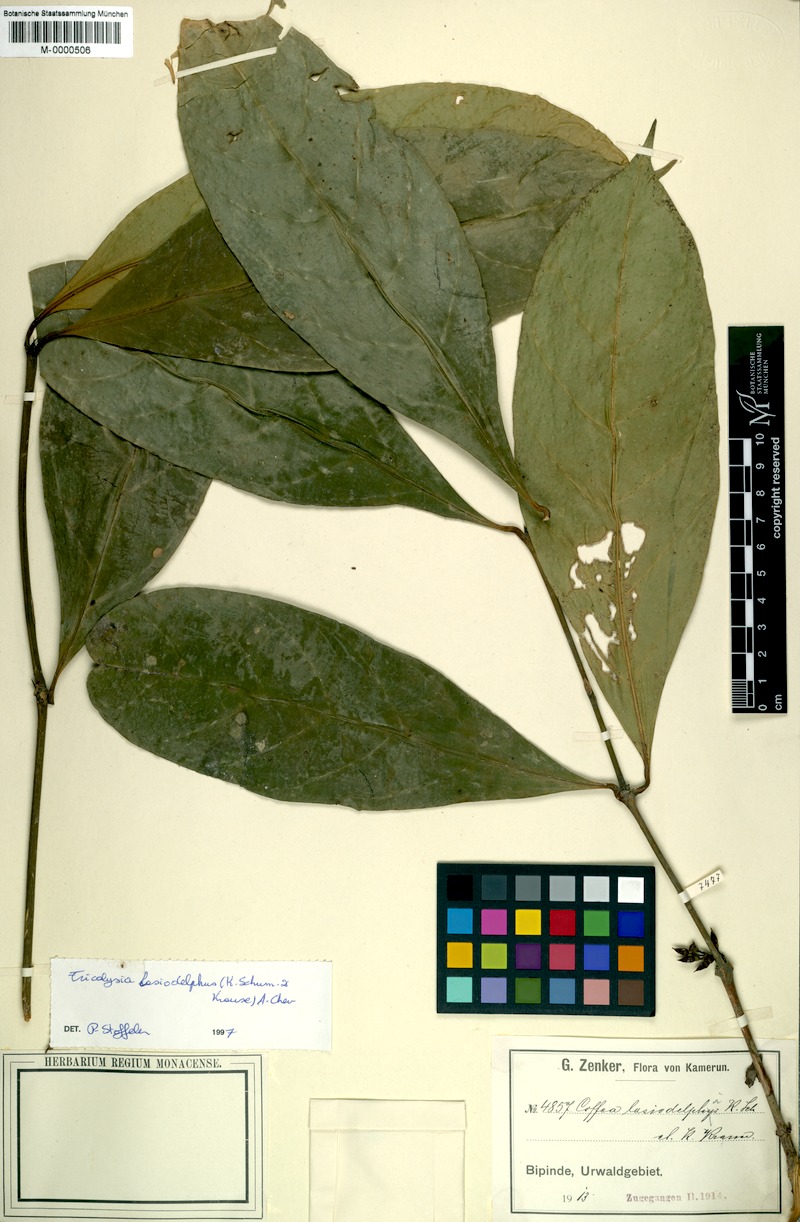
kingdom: Plantae
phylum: Tracheophyta
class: Magnoliopsida
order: Gentianales
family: Rubiaceae
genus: Tricalysia
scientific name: Tricalysia lasiodelphys
